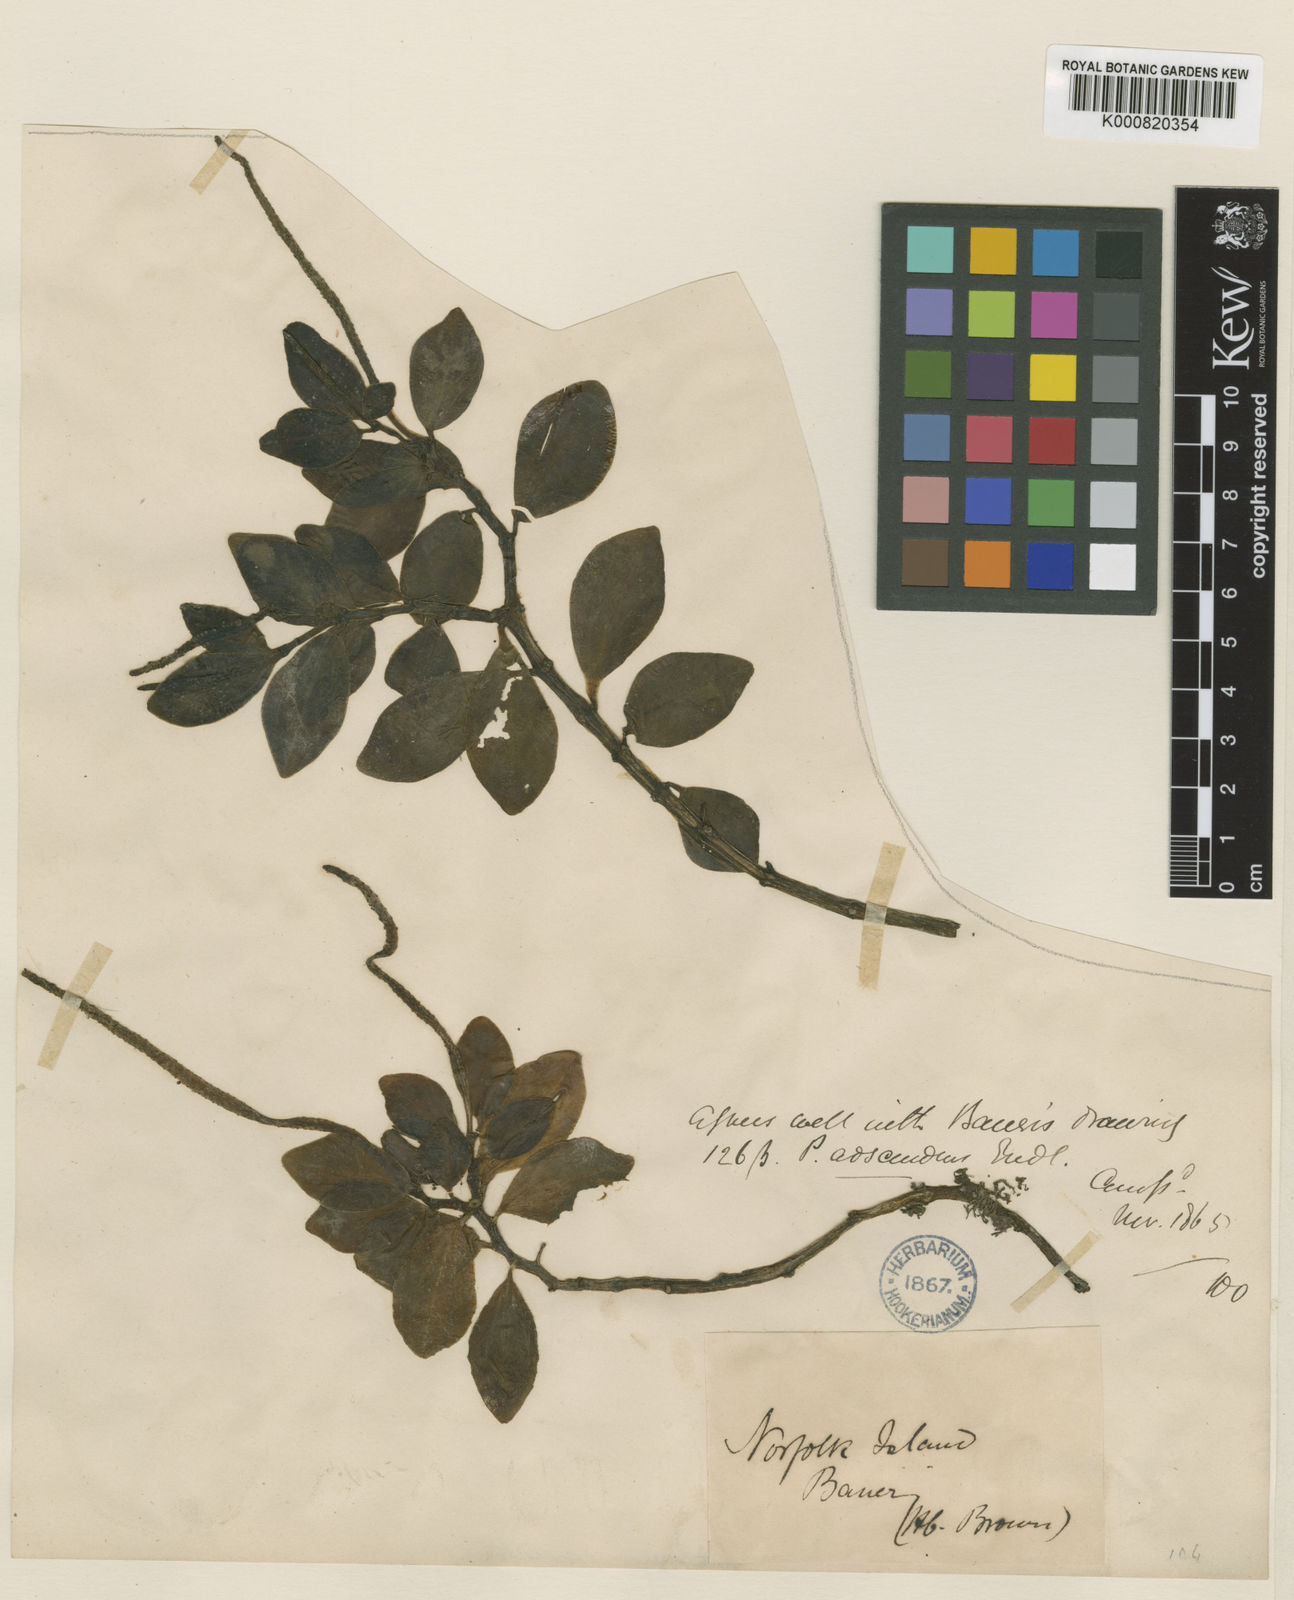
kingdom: Plantae
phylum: Tracheophyta
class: Magnoliopsida
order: Piperales
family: Piperaceae
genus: Peperomia
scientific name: Peperomia urvilleana
